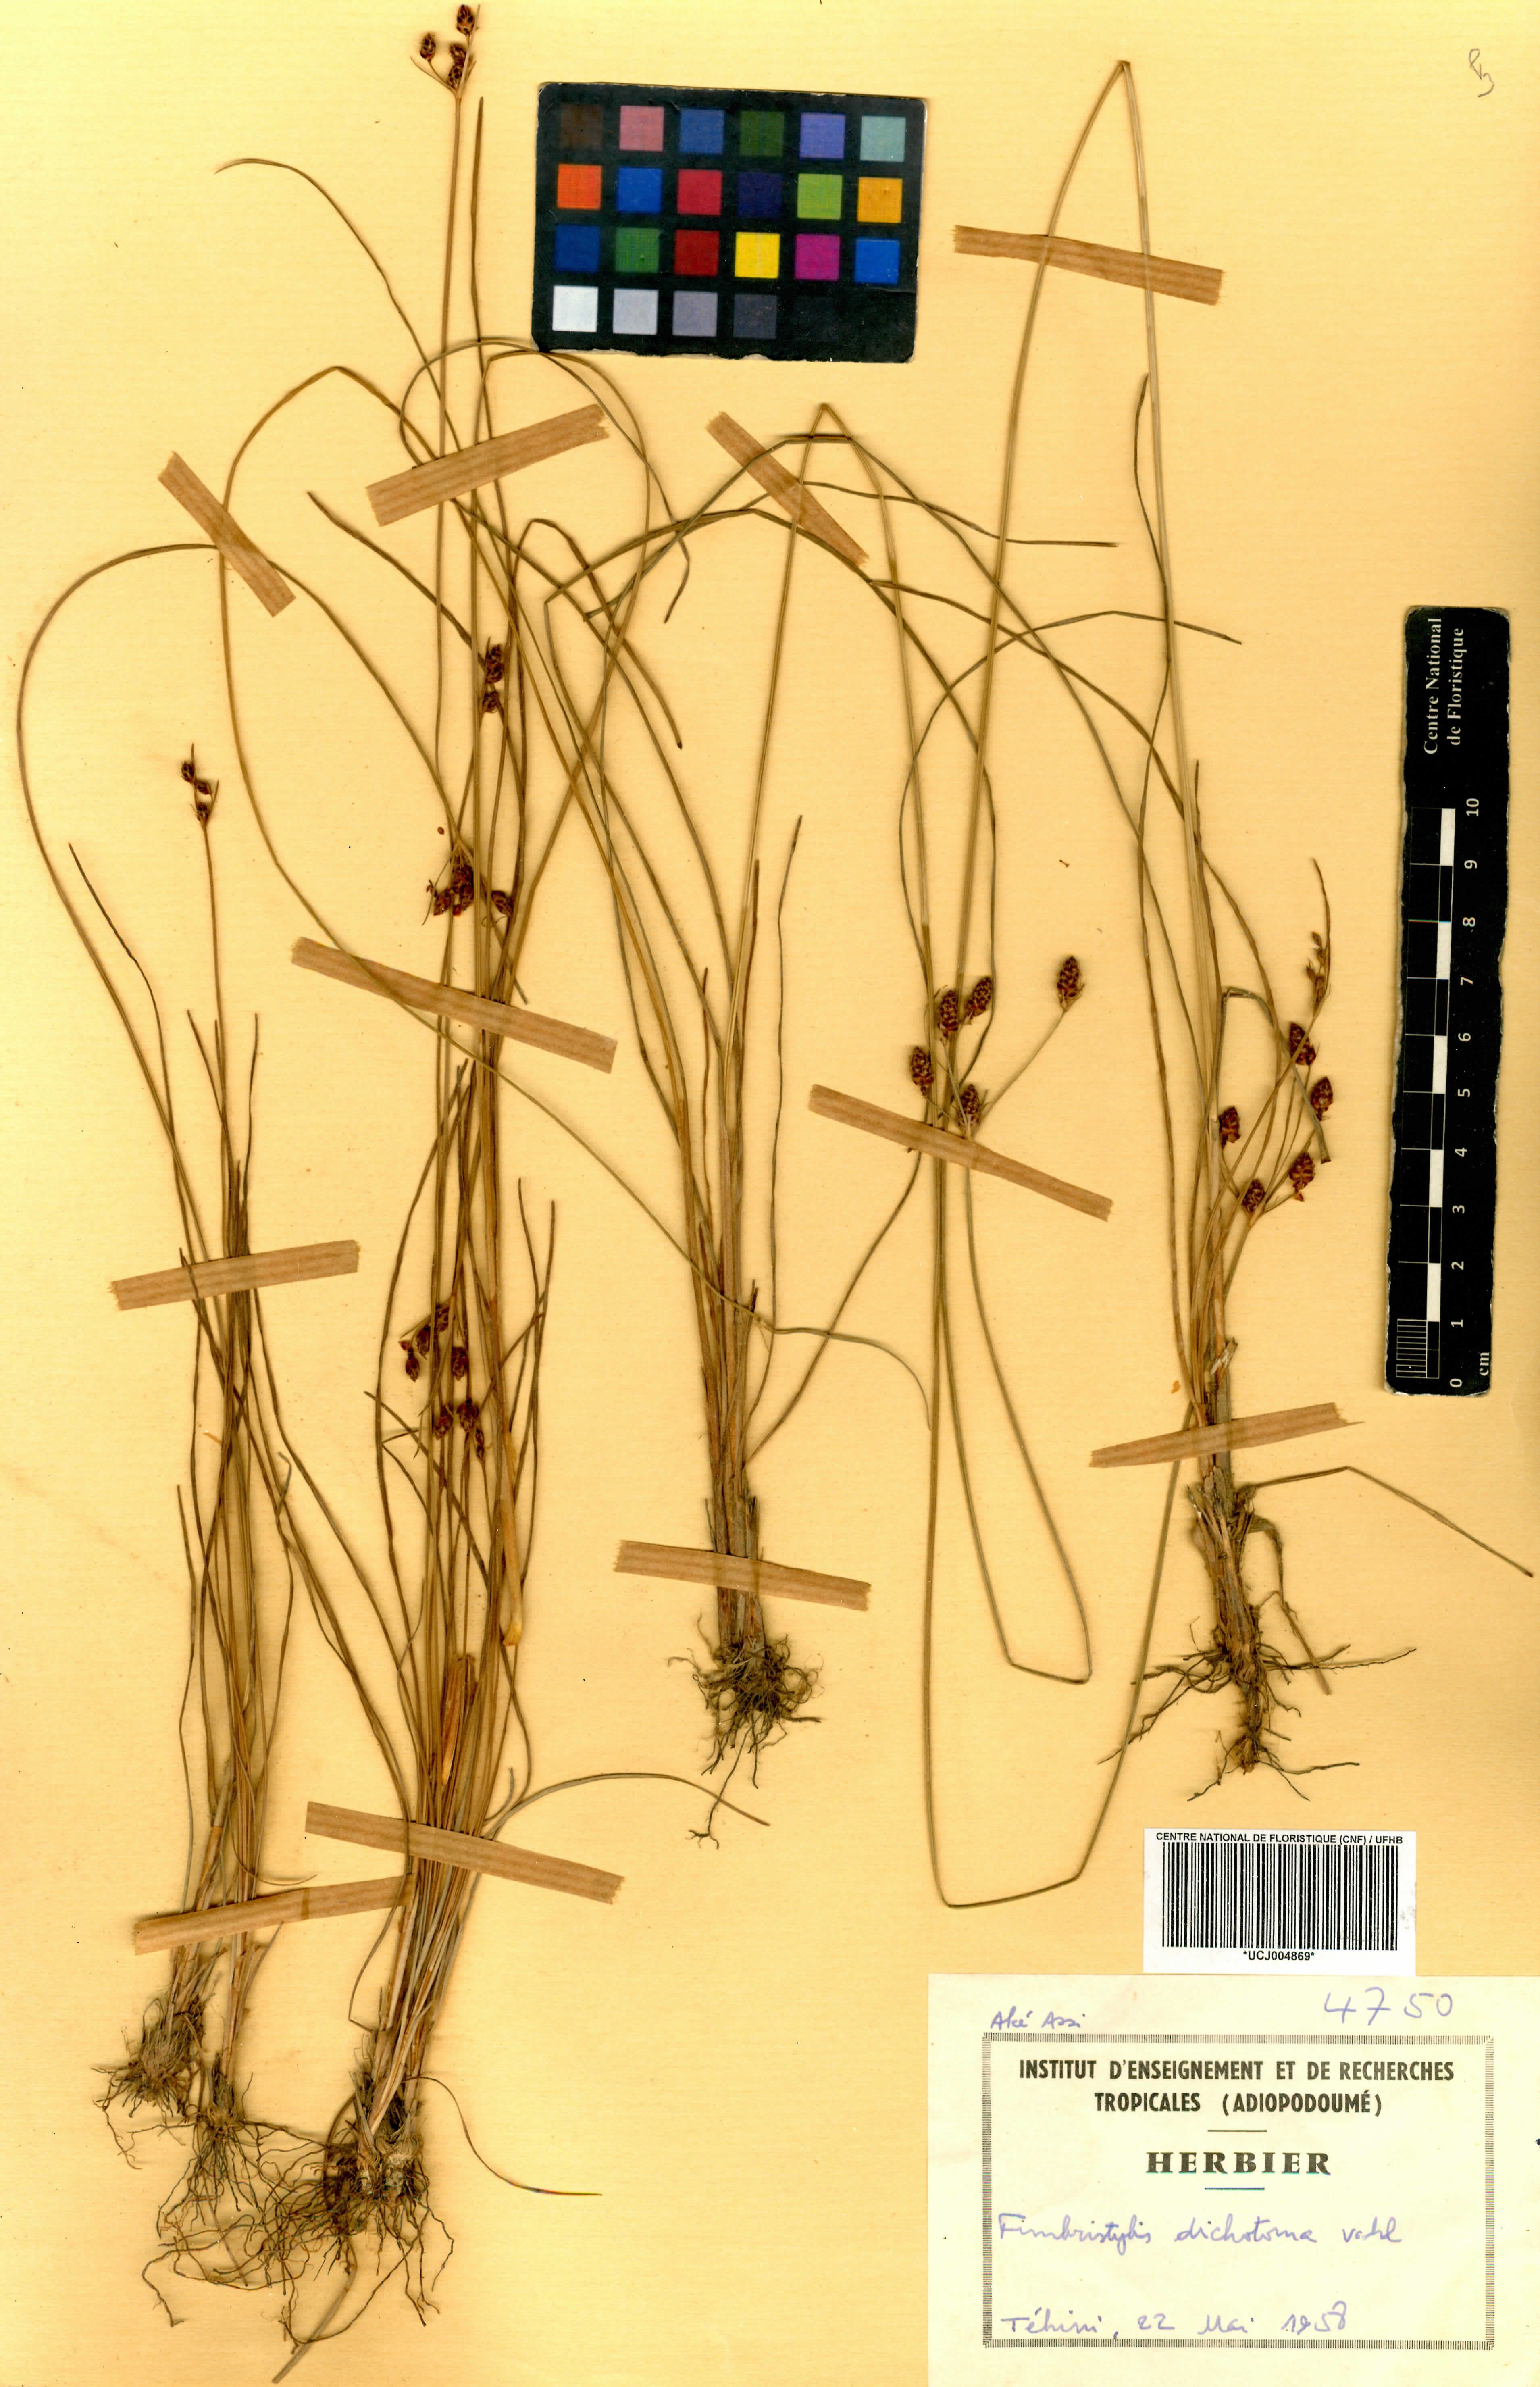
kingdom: Plantae
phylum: Tracheophyta
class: Liliopsida
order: Poales
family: Cyperaceae
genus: Fimbristylis
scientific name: Fimbristylis dichotoma
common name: Forked fimbry
